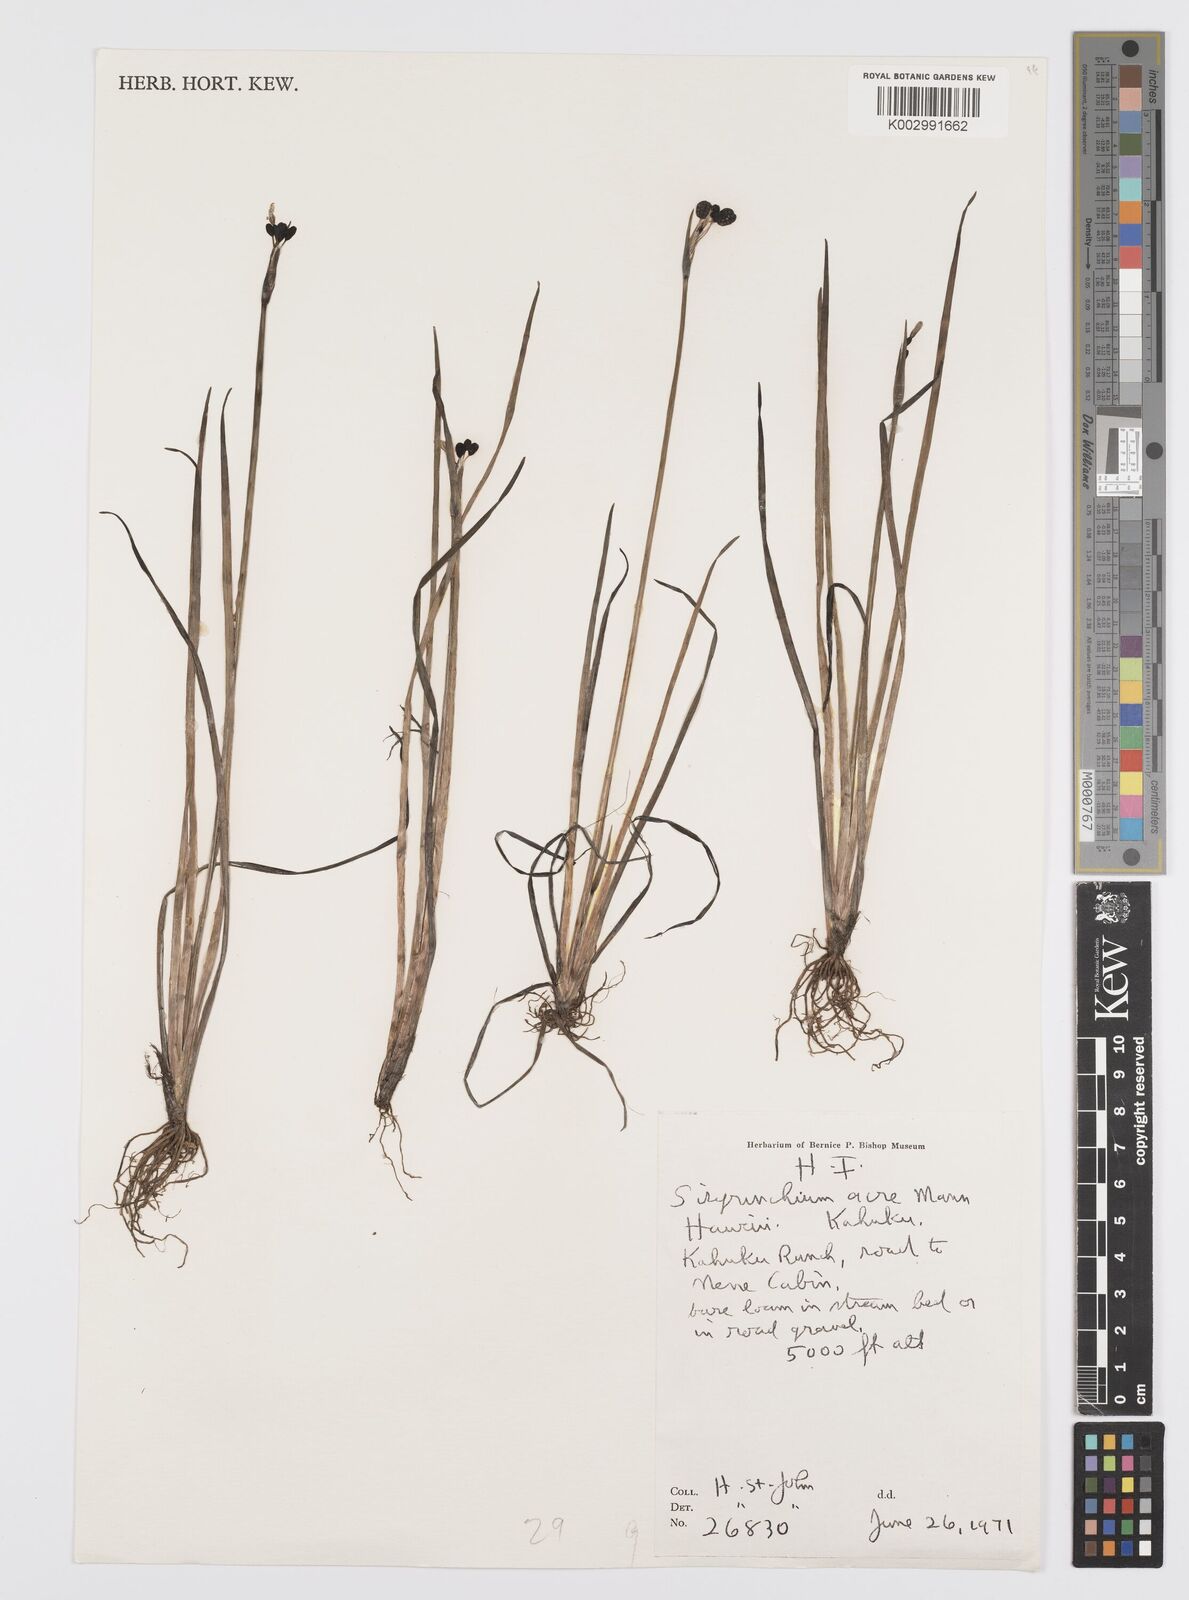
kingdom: Plantae
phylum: Tracheophyta
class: Liliopsida
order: Asparagales
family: Iridaceae
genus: Sisyrinchium
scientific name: Sisyrinchium acre
